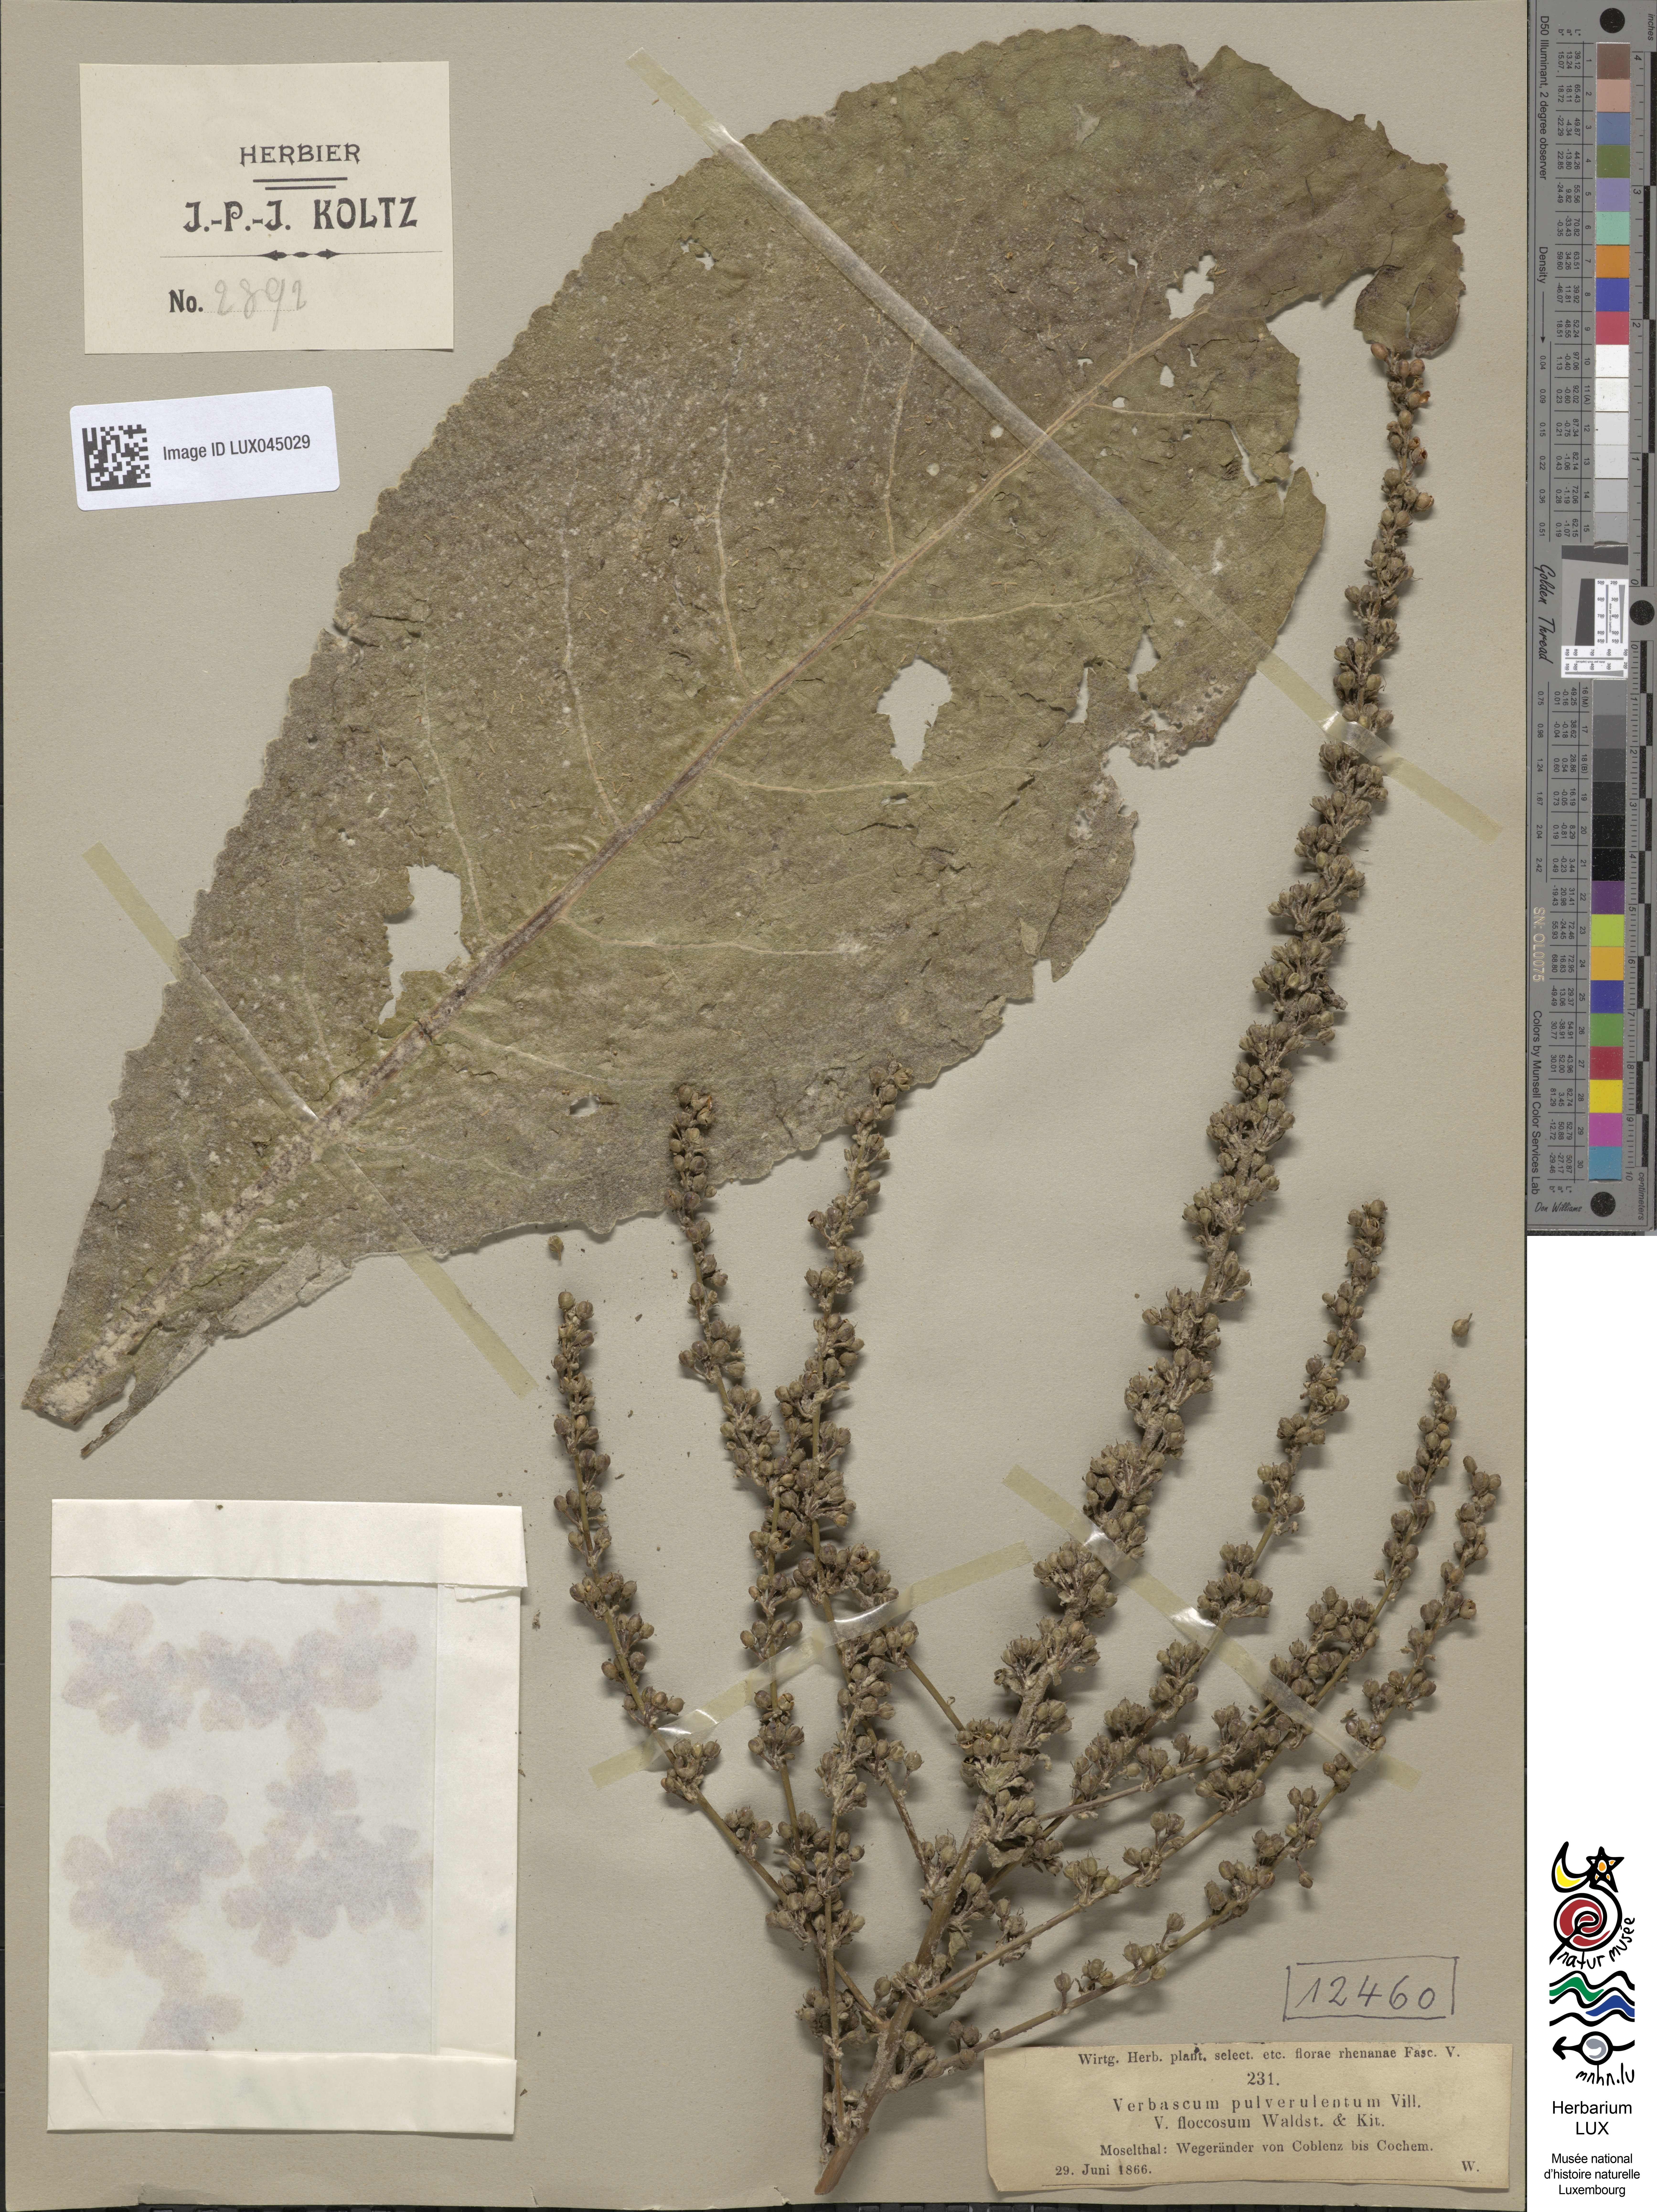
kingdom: Plantae
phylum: Tracheophyta
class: Magnoliopsida
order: Lamiales
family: Scrophulariaceae
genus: Verbascum
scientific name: Verbascum pulverulentum
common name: Broad-leaf mullein
